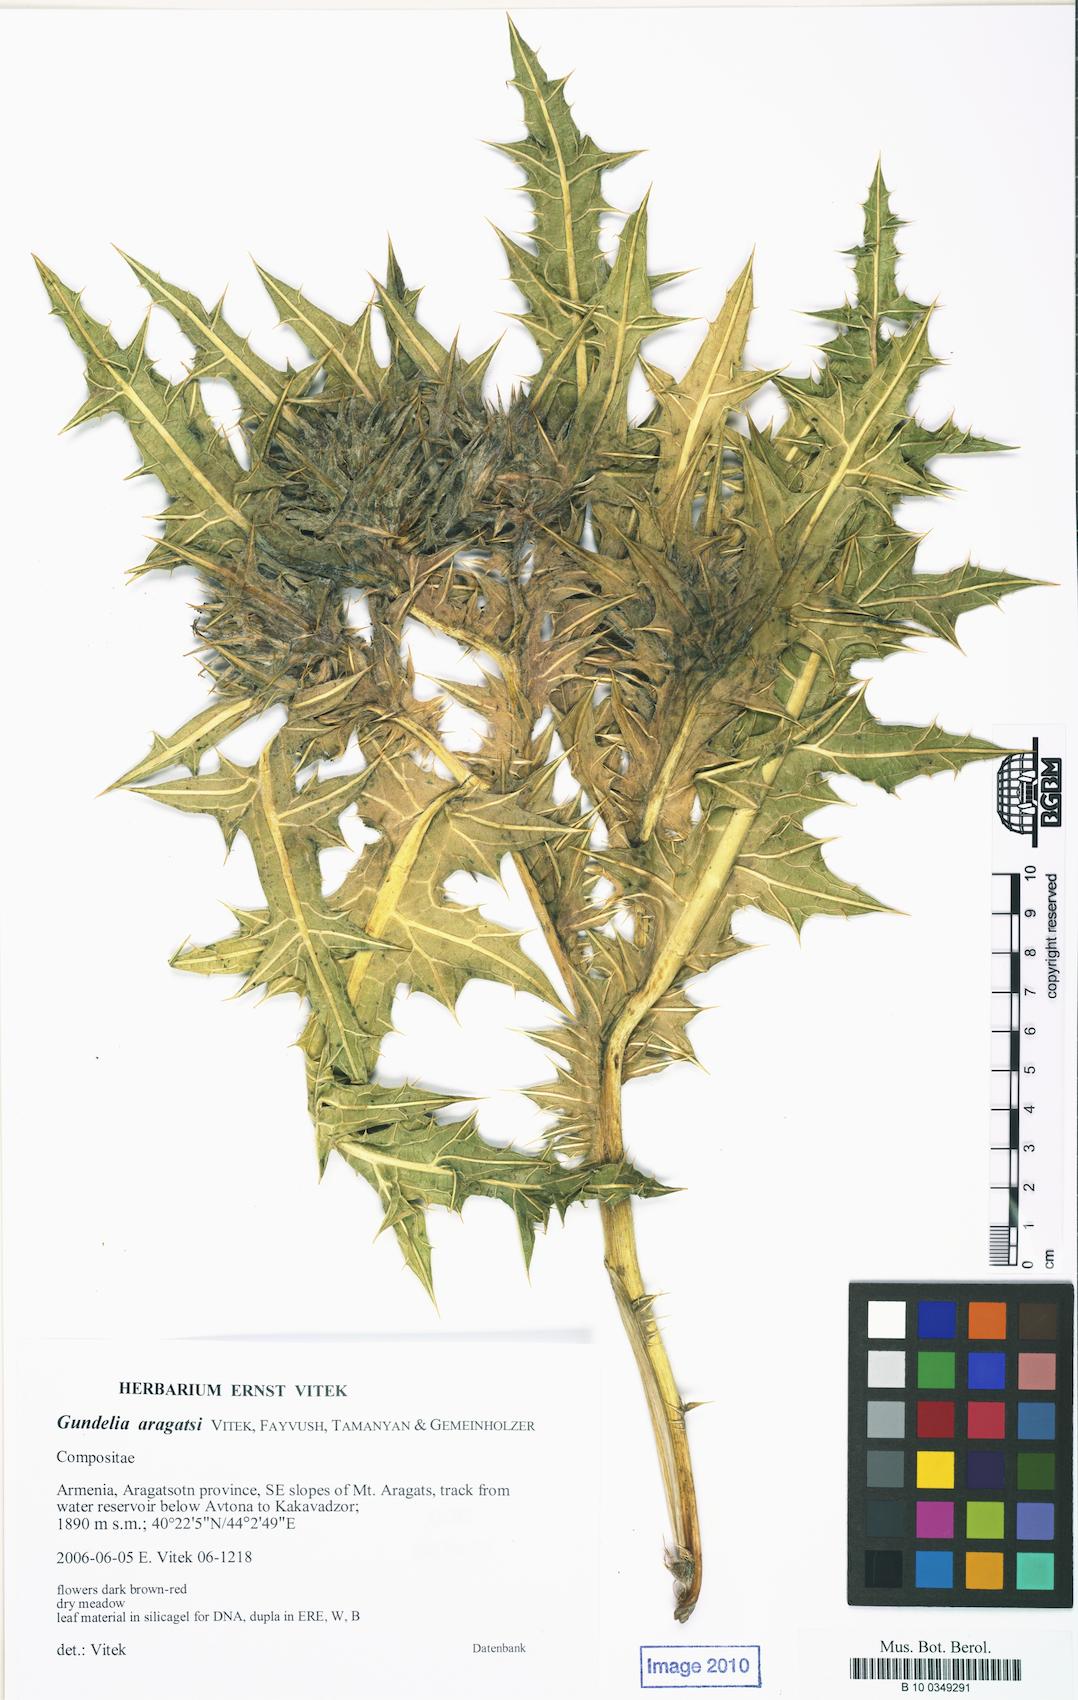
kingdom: Plantae
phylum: Tracheophyta
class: Magnoliopsida
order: Asterales
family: Asteraceae
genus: Gundelia
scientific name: Gundelia aragatsi
